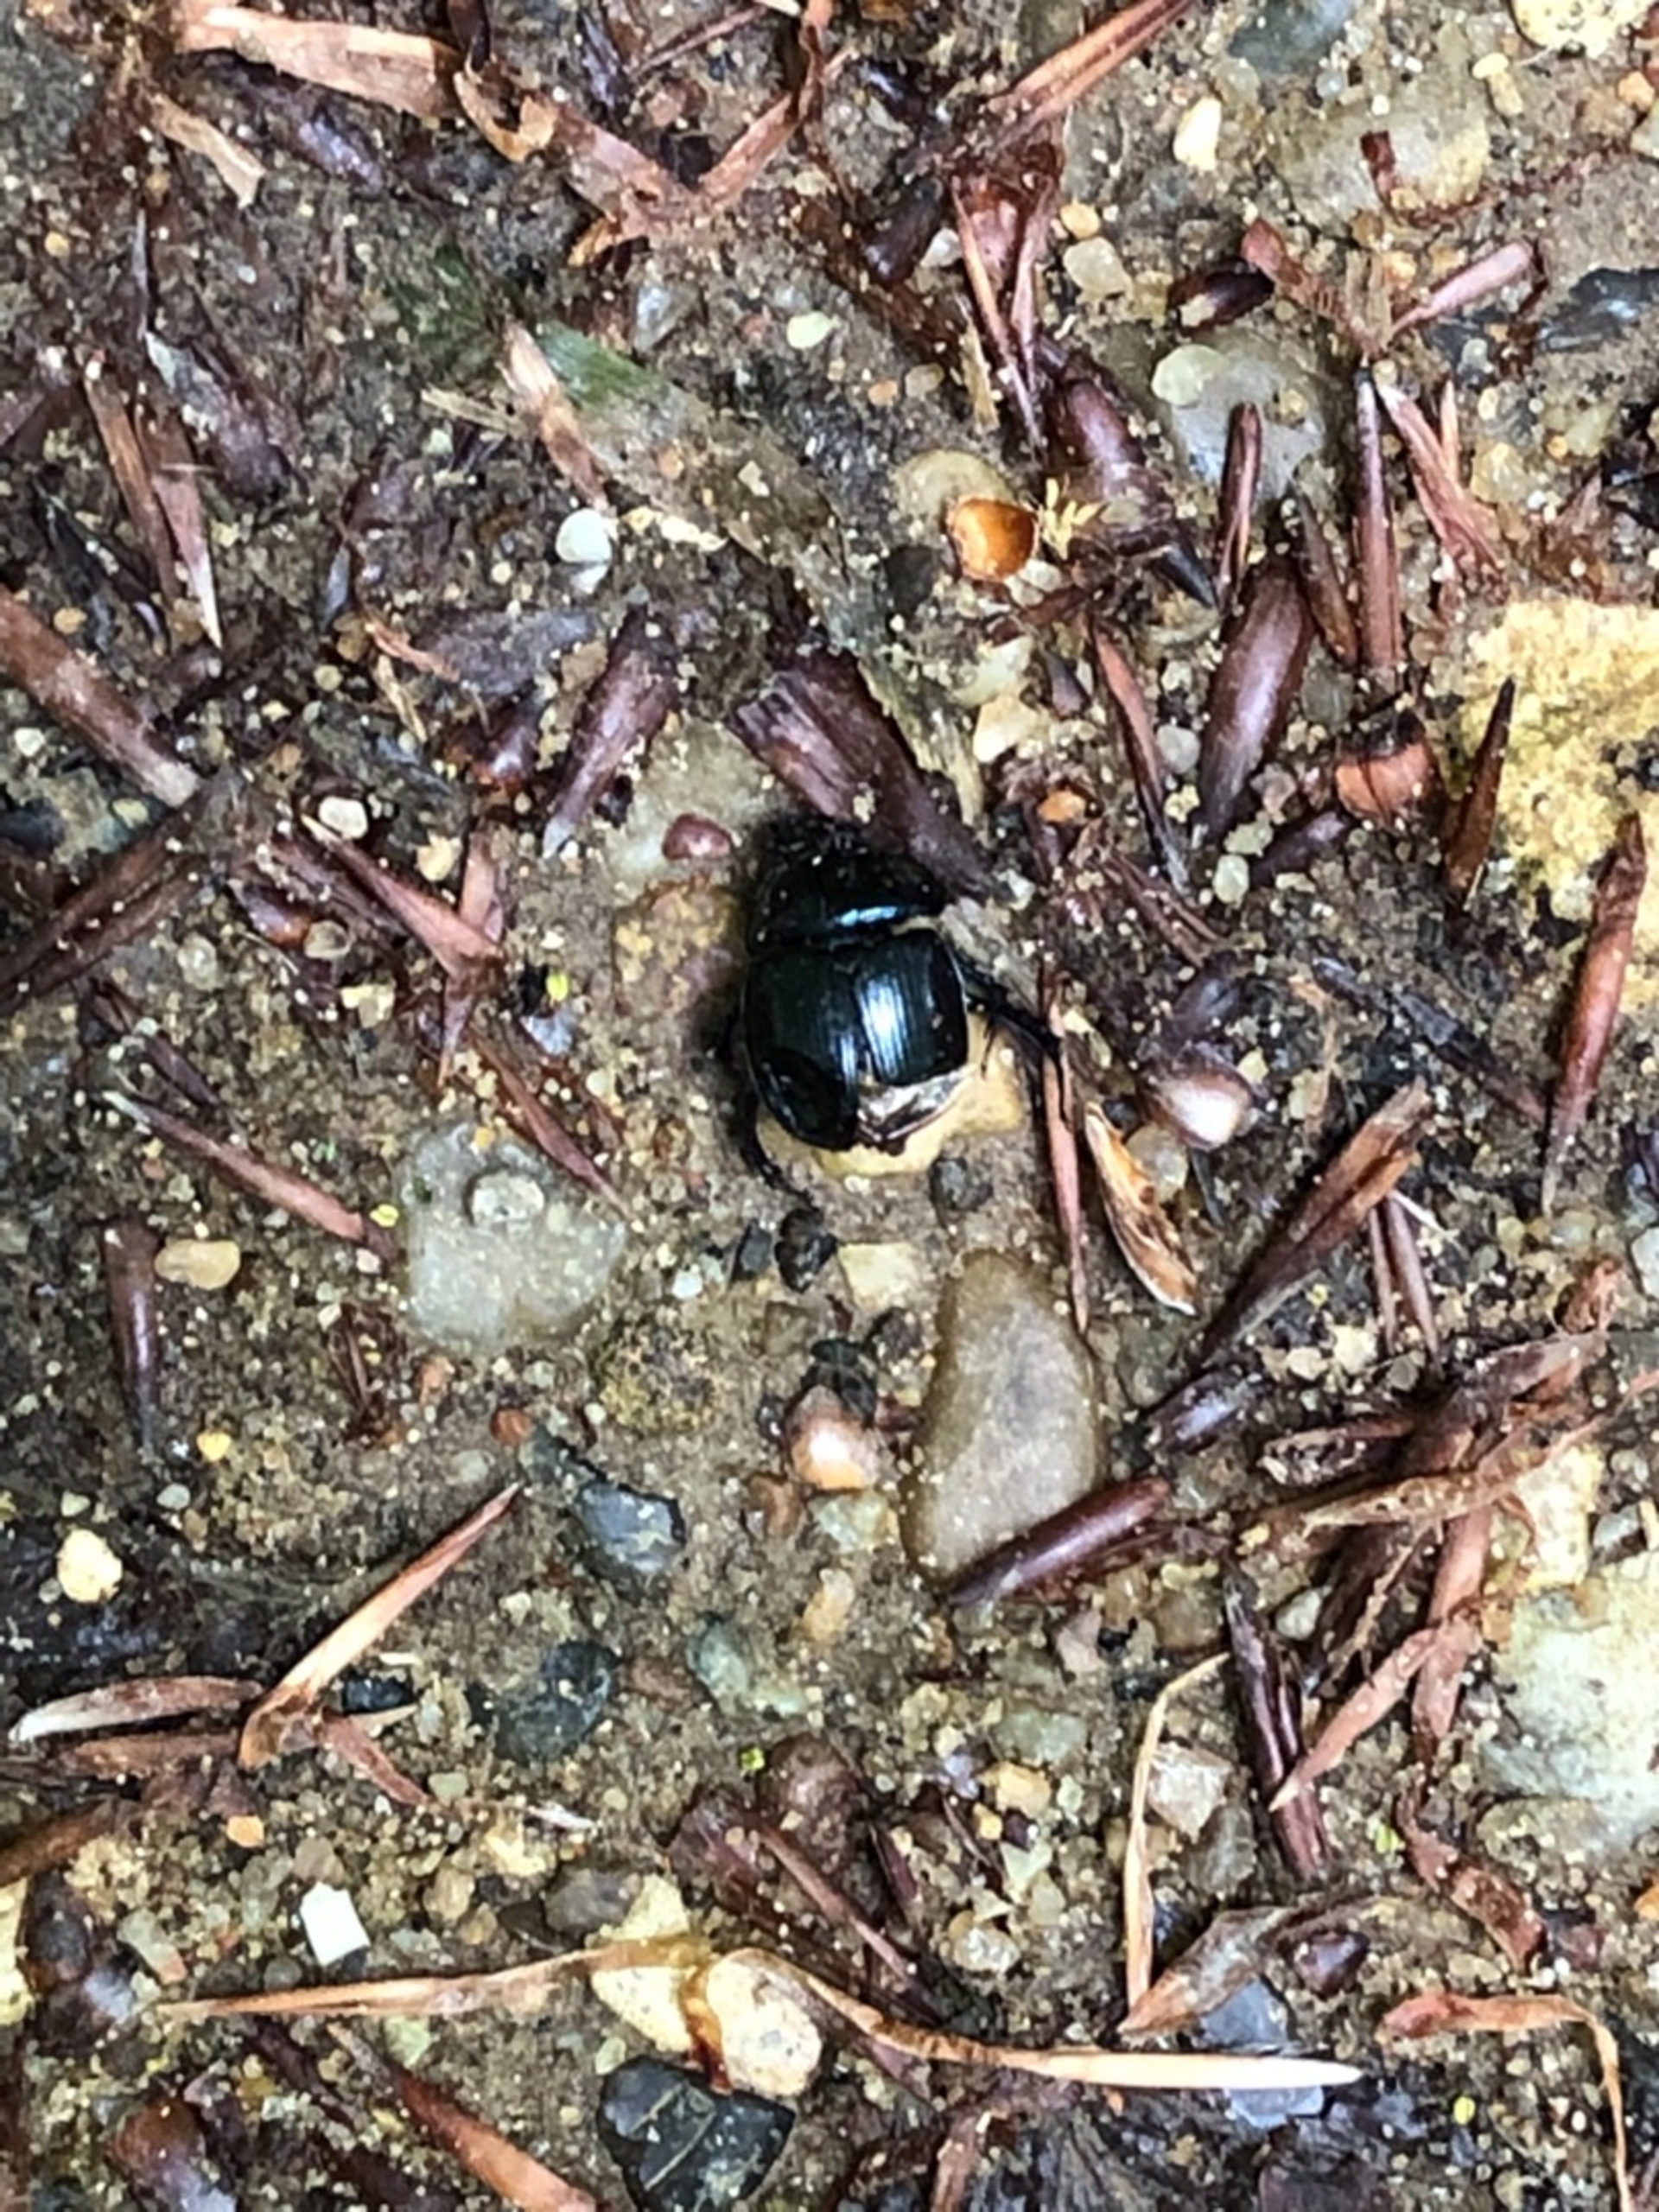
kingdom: Animalia
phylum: Arthropoda
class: Insecta
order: Coleoptera
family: Geotrupidae
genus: Anoplotrupes
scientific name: Anoplotrupes stercorosus
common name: Skovskarnbasse
